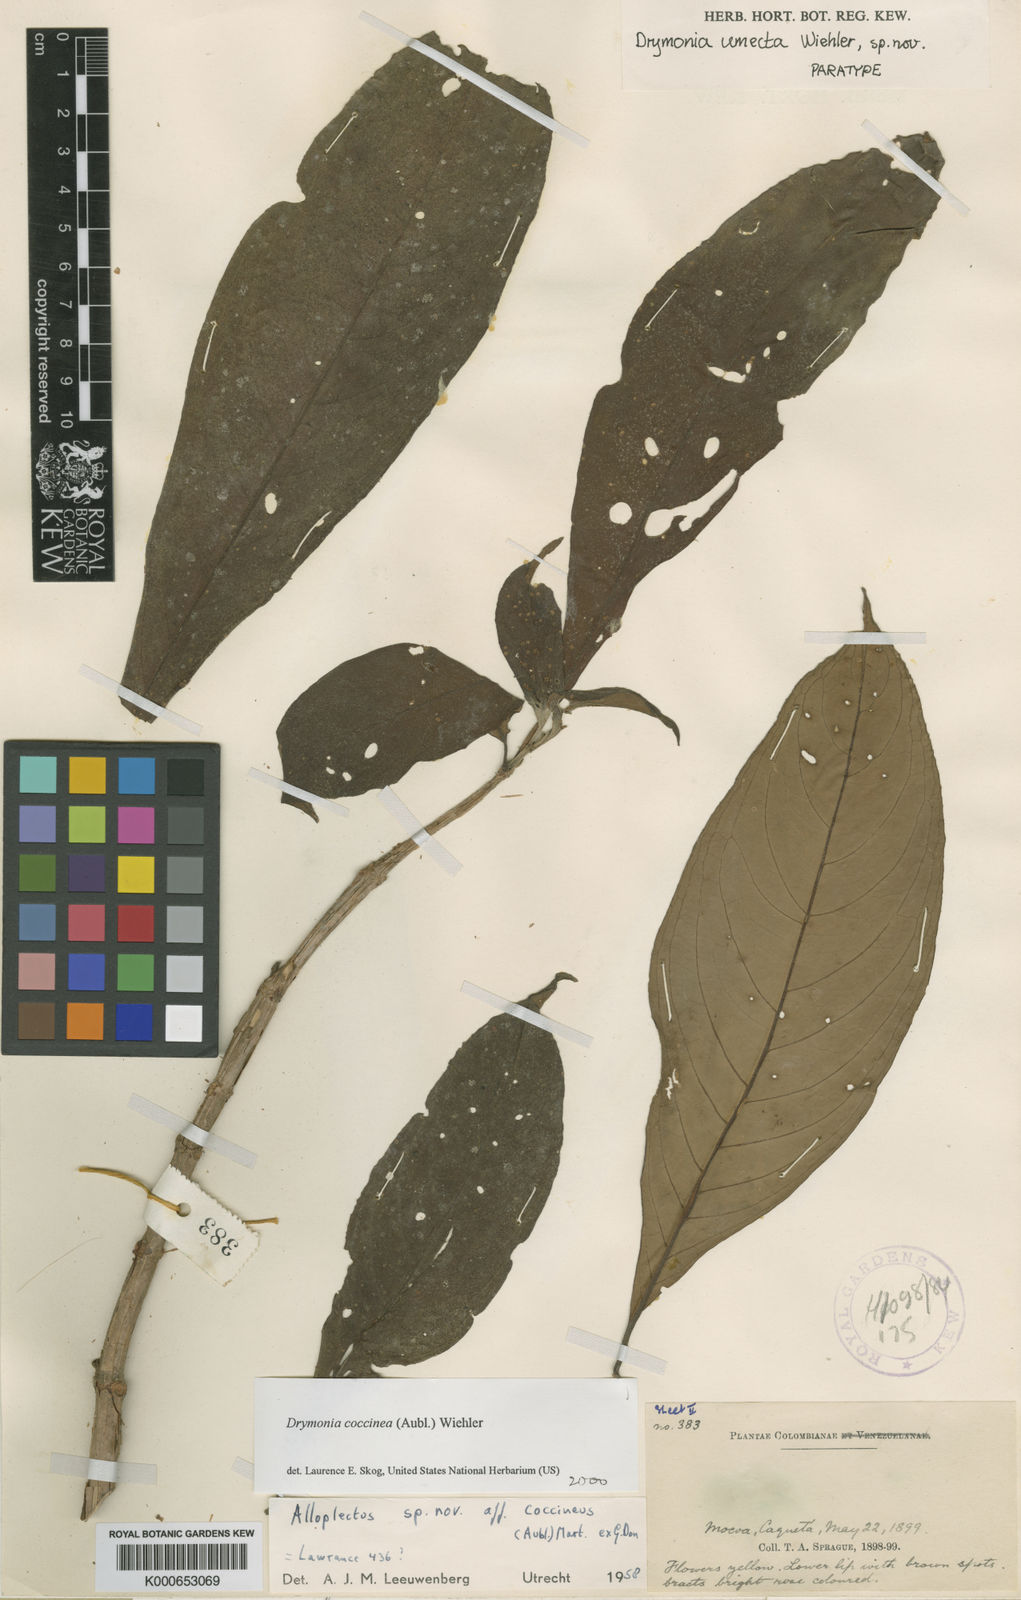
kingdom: Plantae
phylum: Tracheophyta
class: Magnoliopsida
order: Lamiales
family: Gesneriaceae
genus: Drymonia
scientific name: Drymonia
